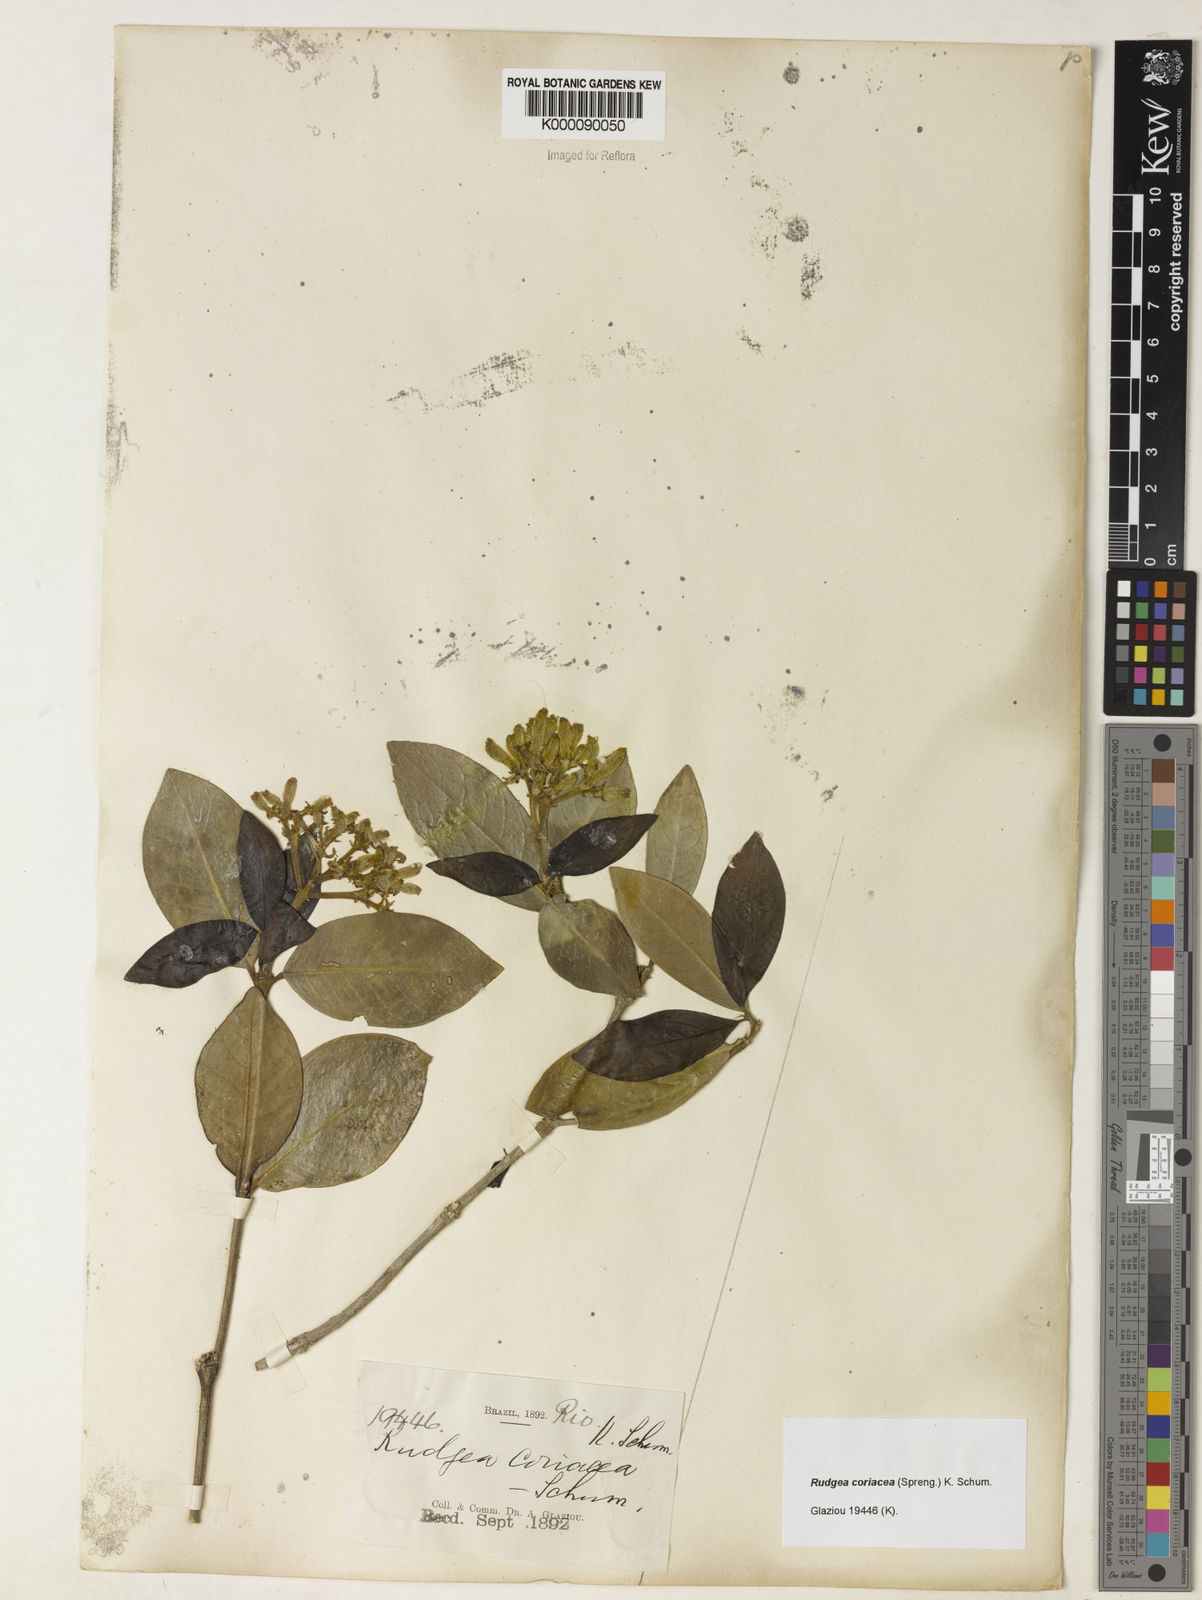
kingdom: Plantae
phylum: Tracheophyta
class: Magnoliopsida
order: Gentianales
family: Rubiaceae
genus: Rudgea
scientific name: Rudgea coriacea
